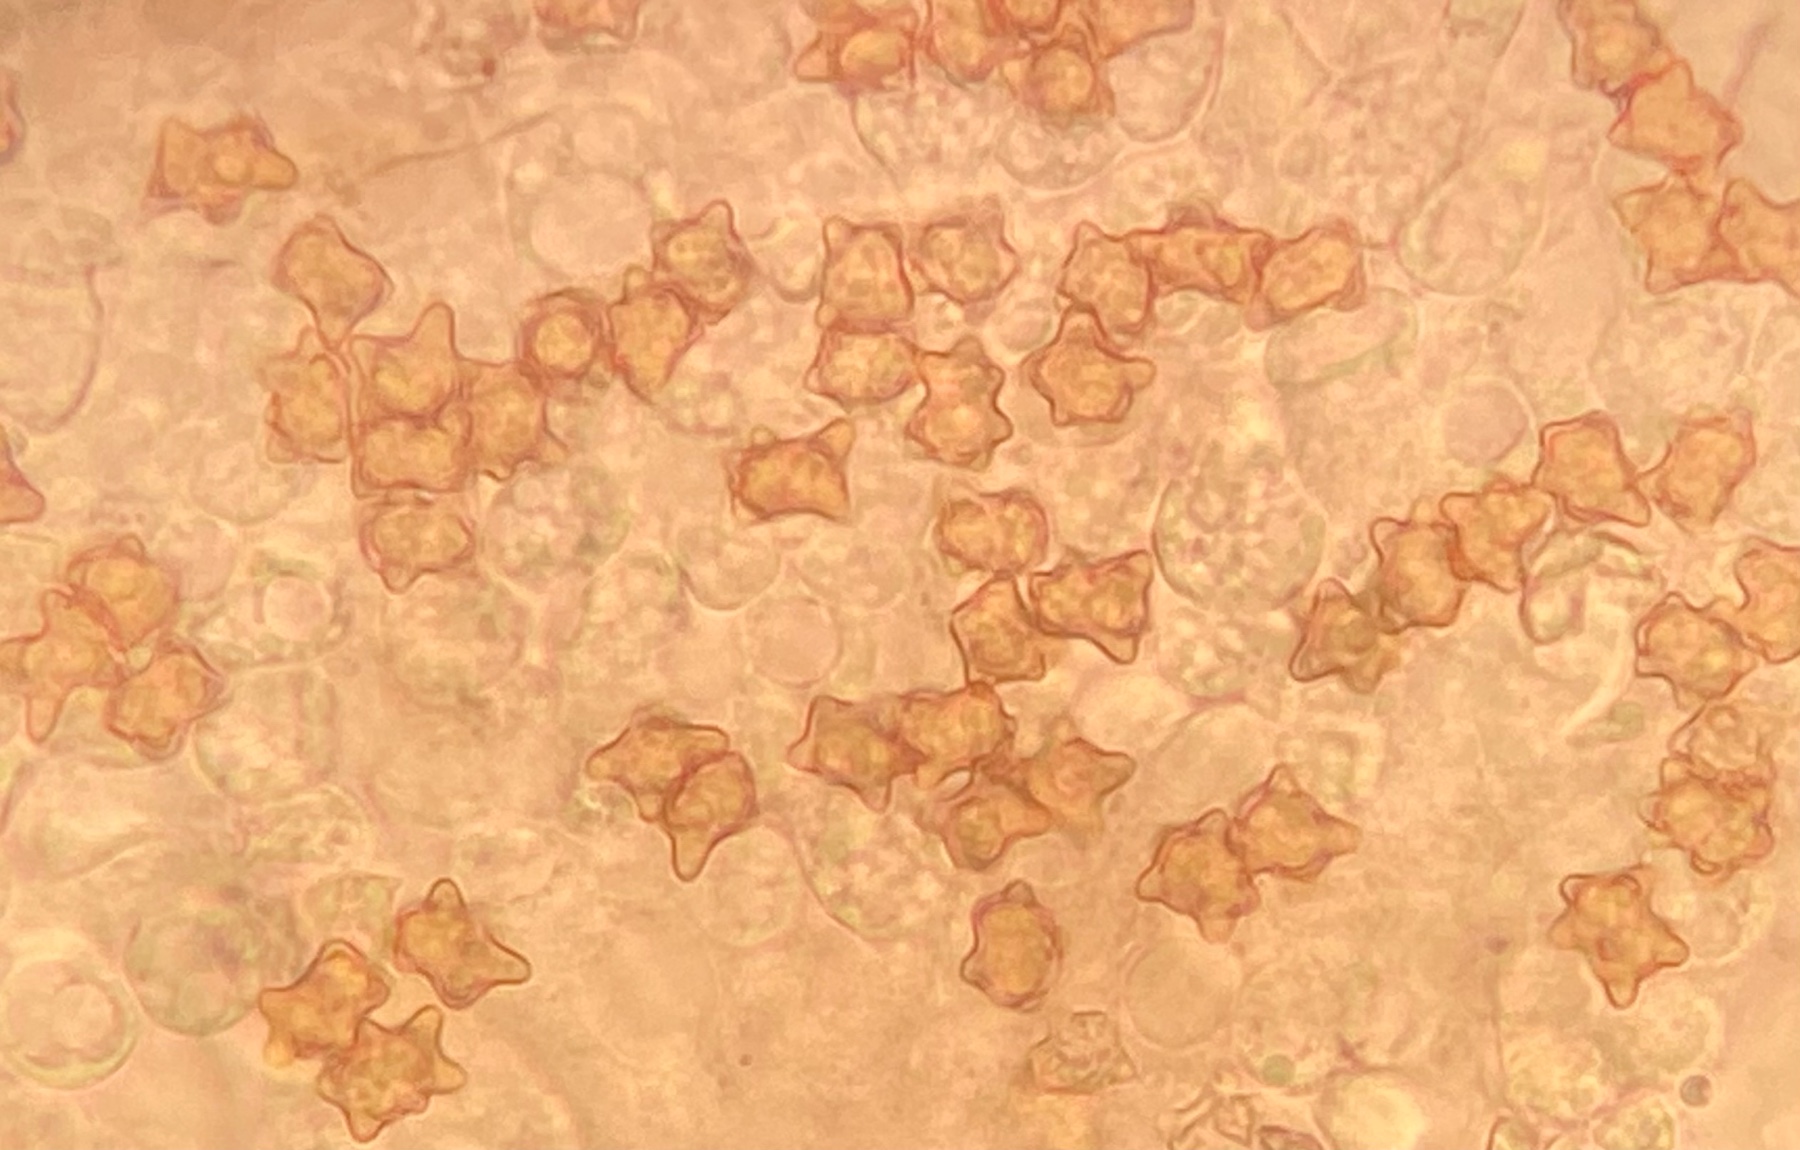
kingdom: Fungi
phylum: Basidiomycota
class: Agaricomycetes
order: Agaricales
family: Inocybaceae
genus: Inocybe
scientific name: Inocybe napipes
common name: roeknoldet trævlhat
